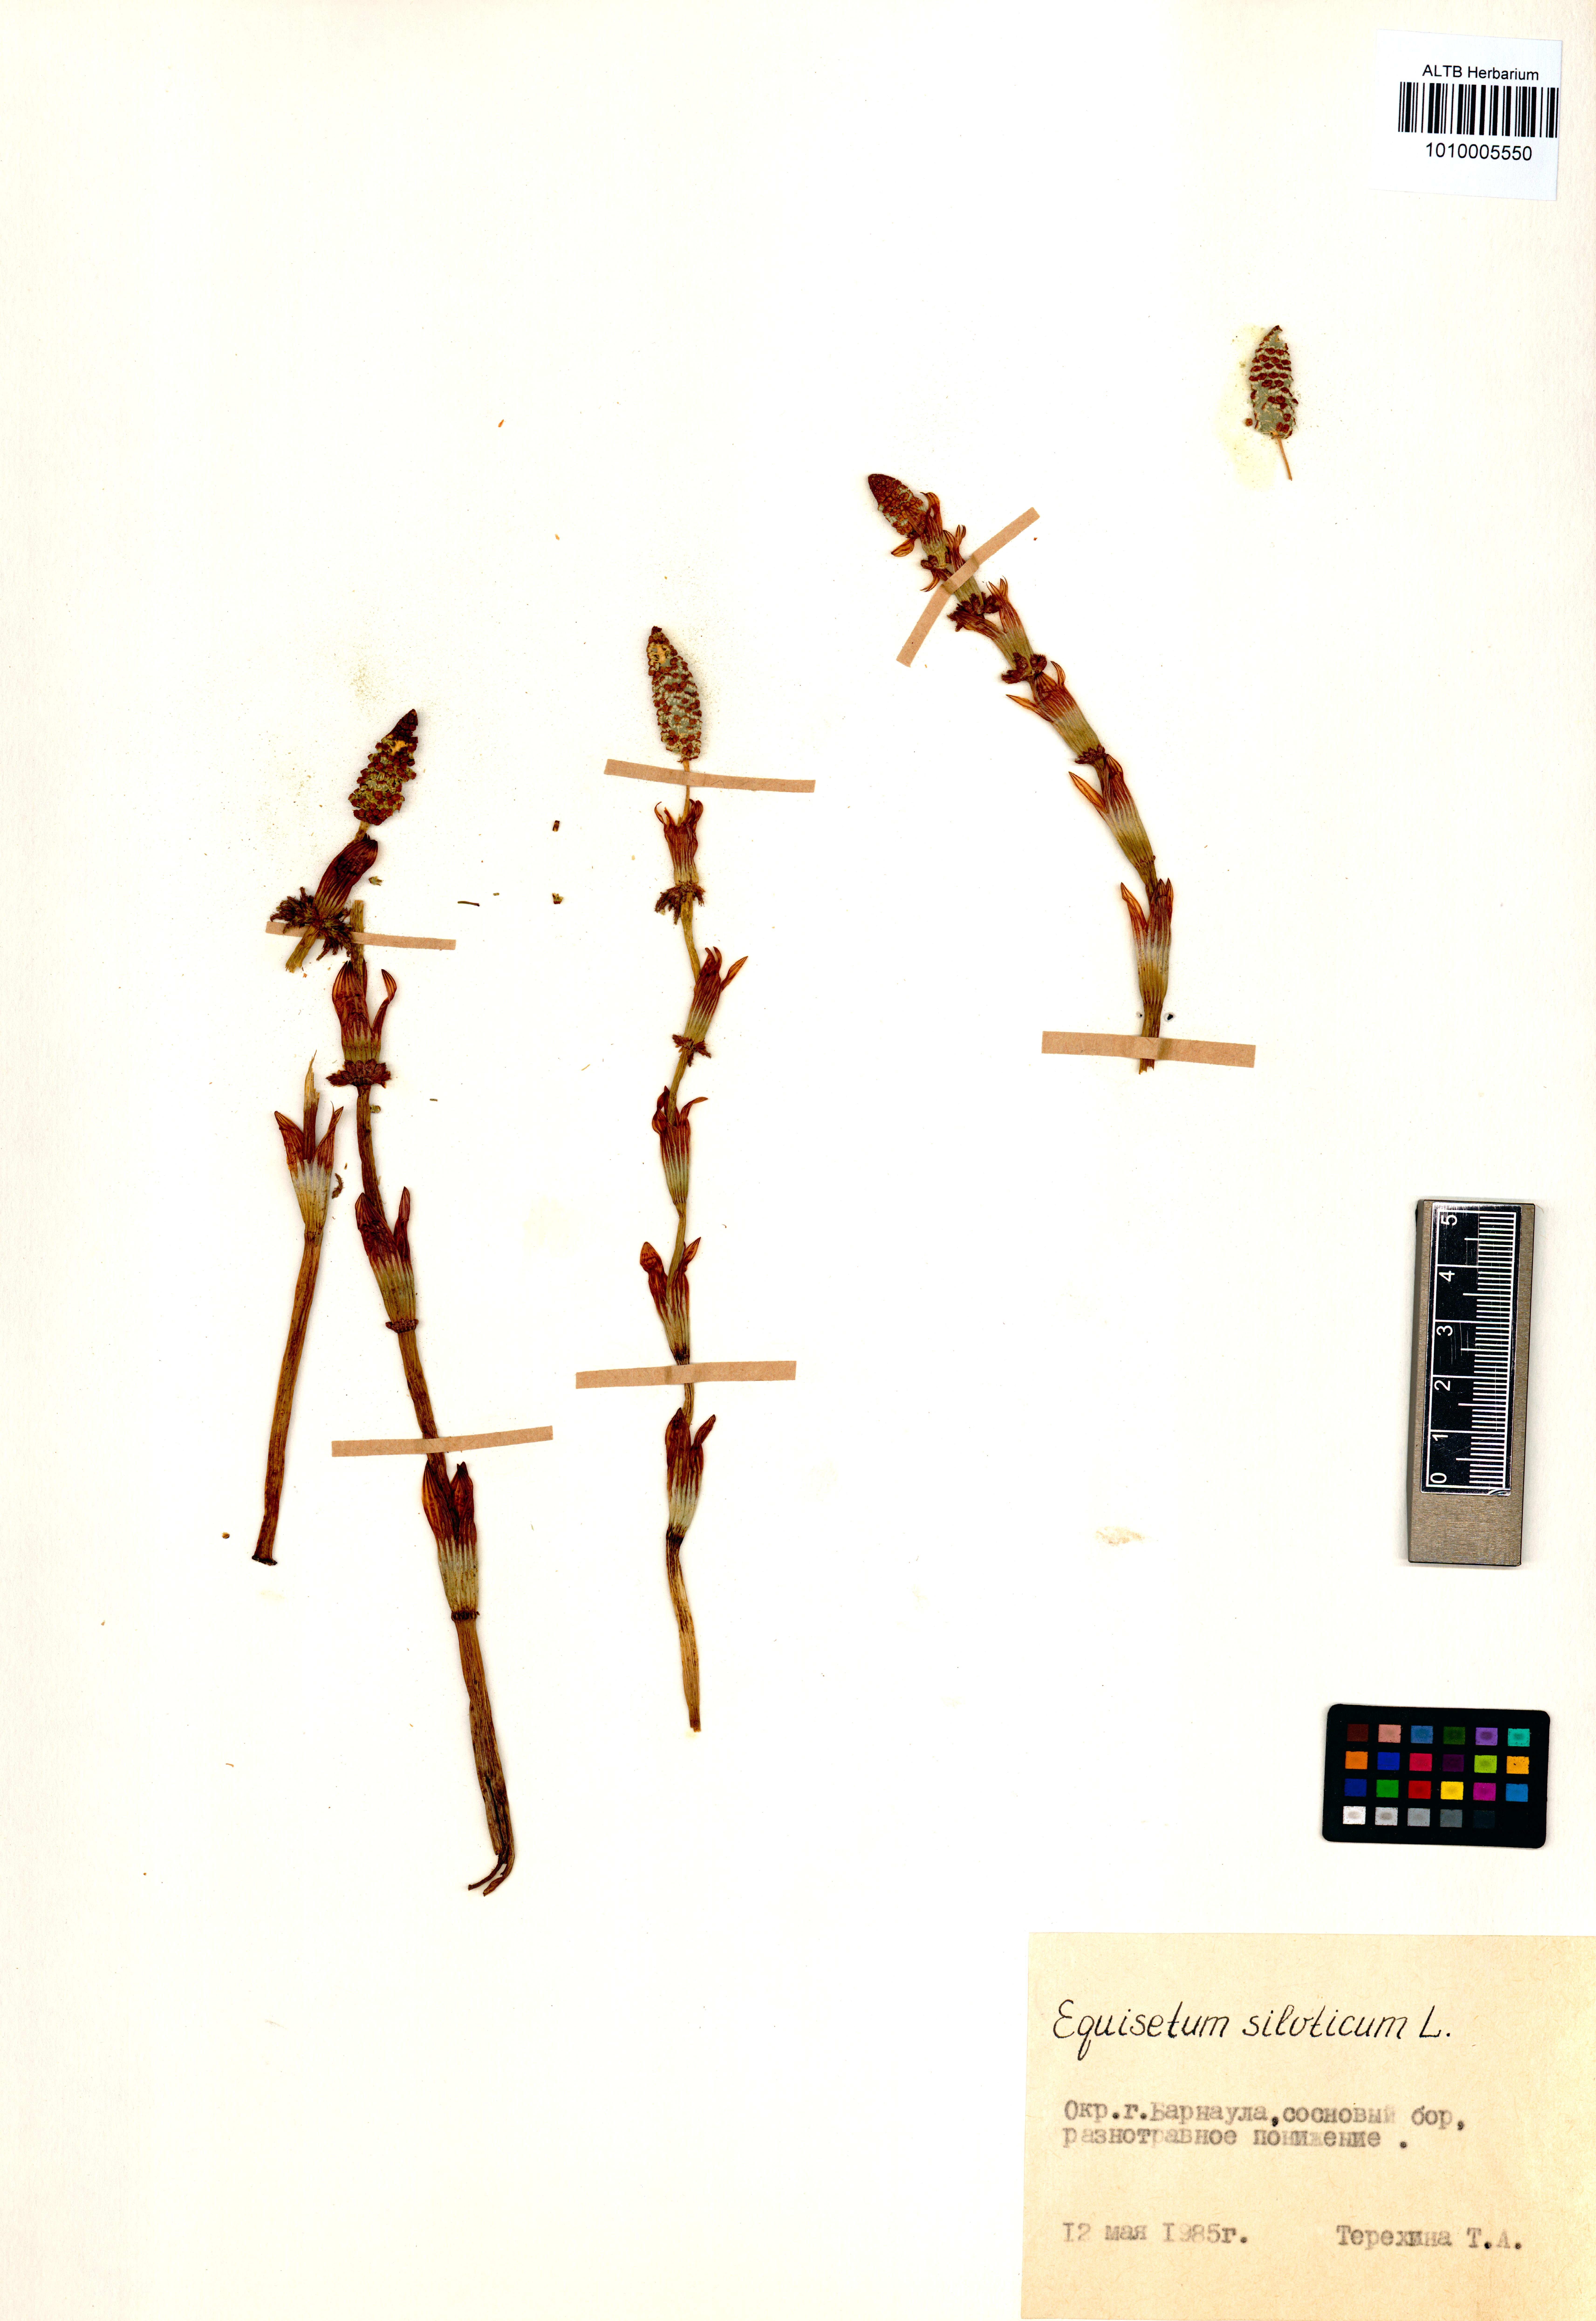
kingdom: Plantae
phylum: Tracheophyta
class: Polypodiopsida
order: Equisetales
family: Equisetaceae
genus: Equisetum
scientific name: Equisetum sylvaticum
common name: Wood horsetail
